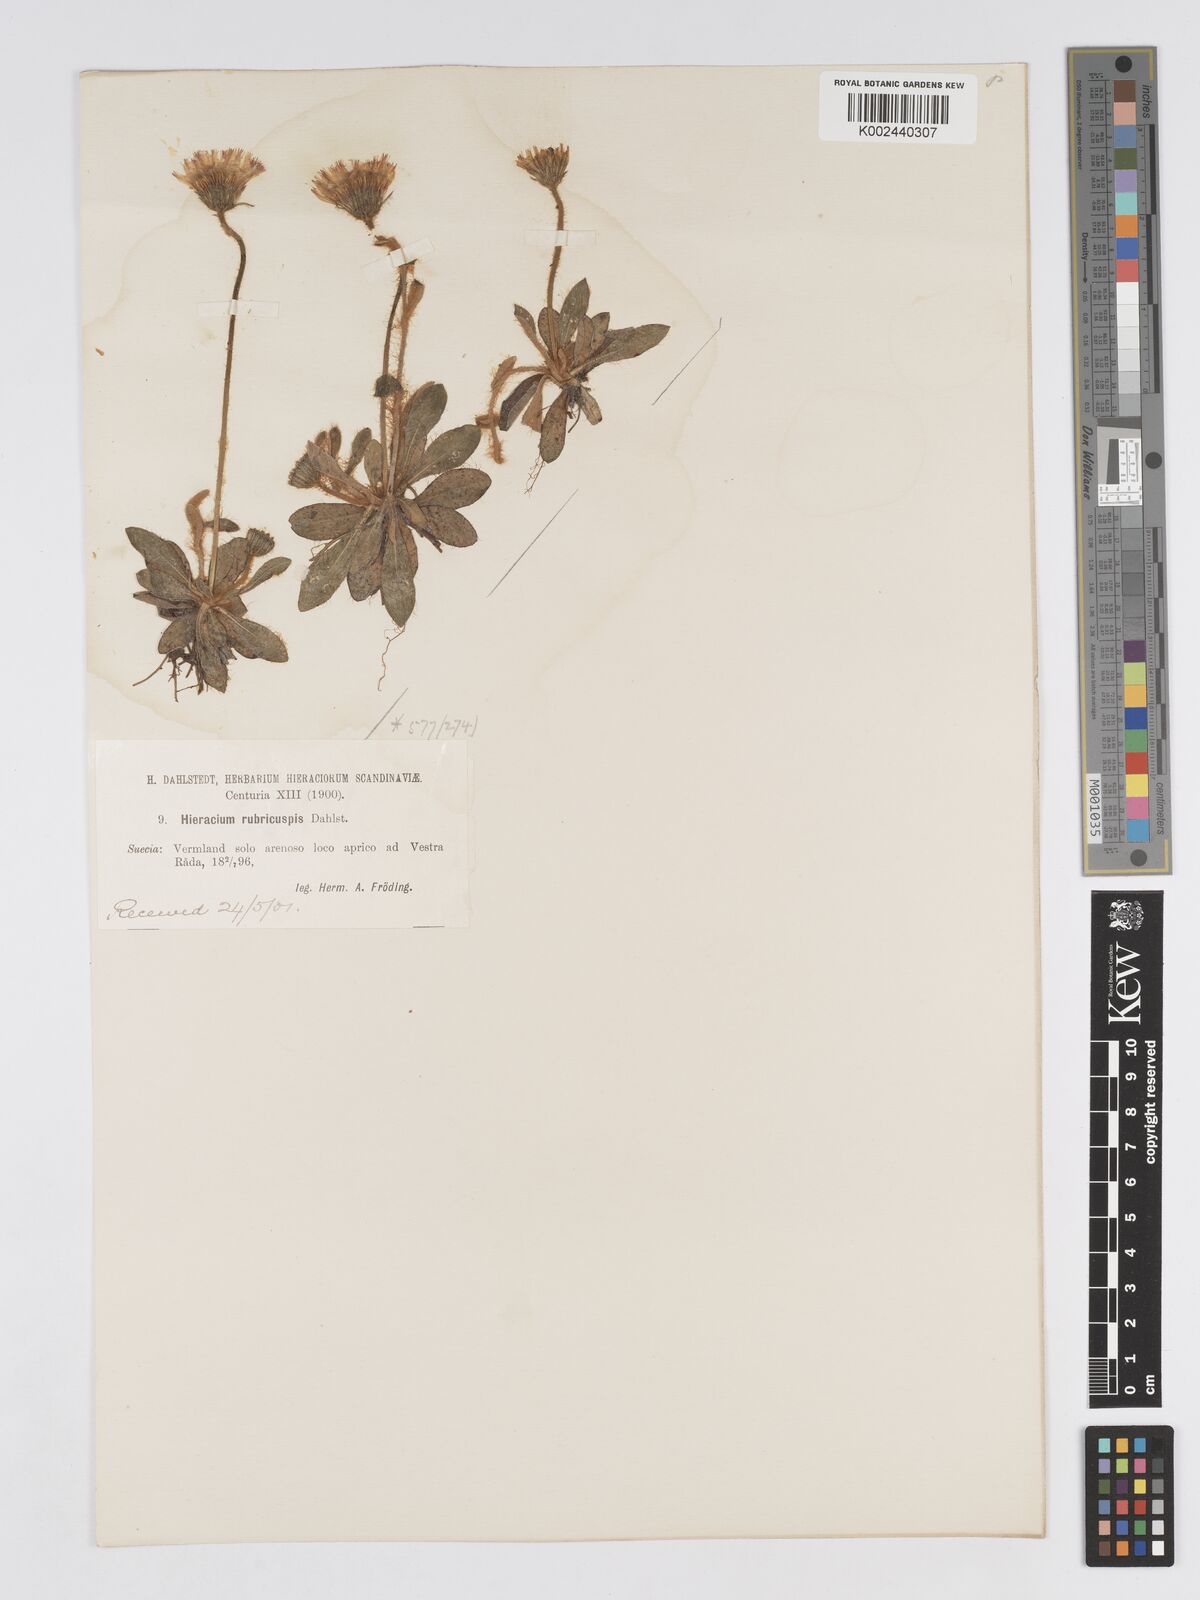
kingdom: Plantae
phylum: Tracheophyta
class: Magnoliopsida
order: Asterales
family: Asteraceae
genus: Pilosella
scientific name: Pilosella officinarum
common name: Mouse-ear hawkweed
